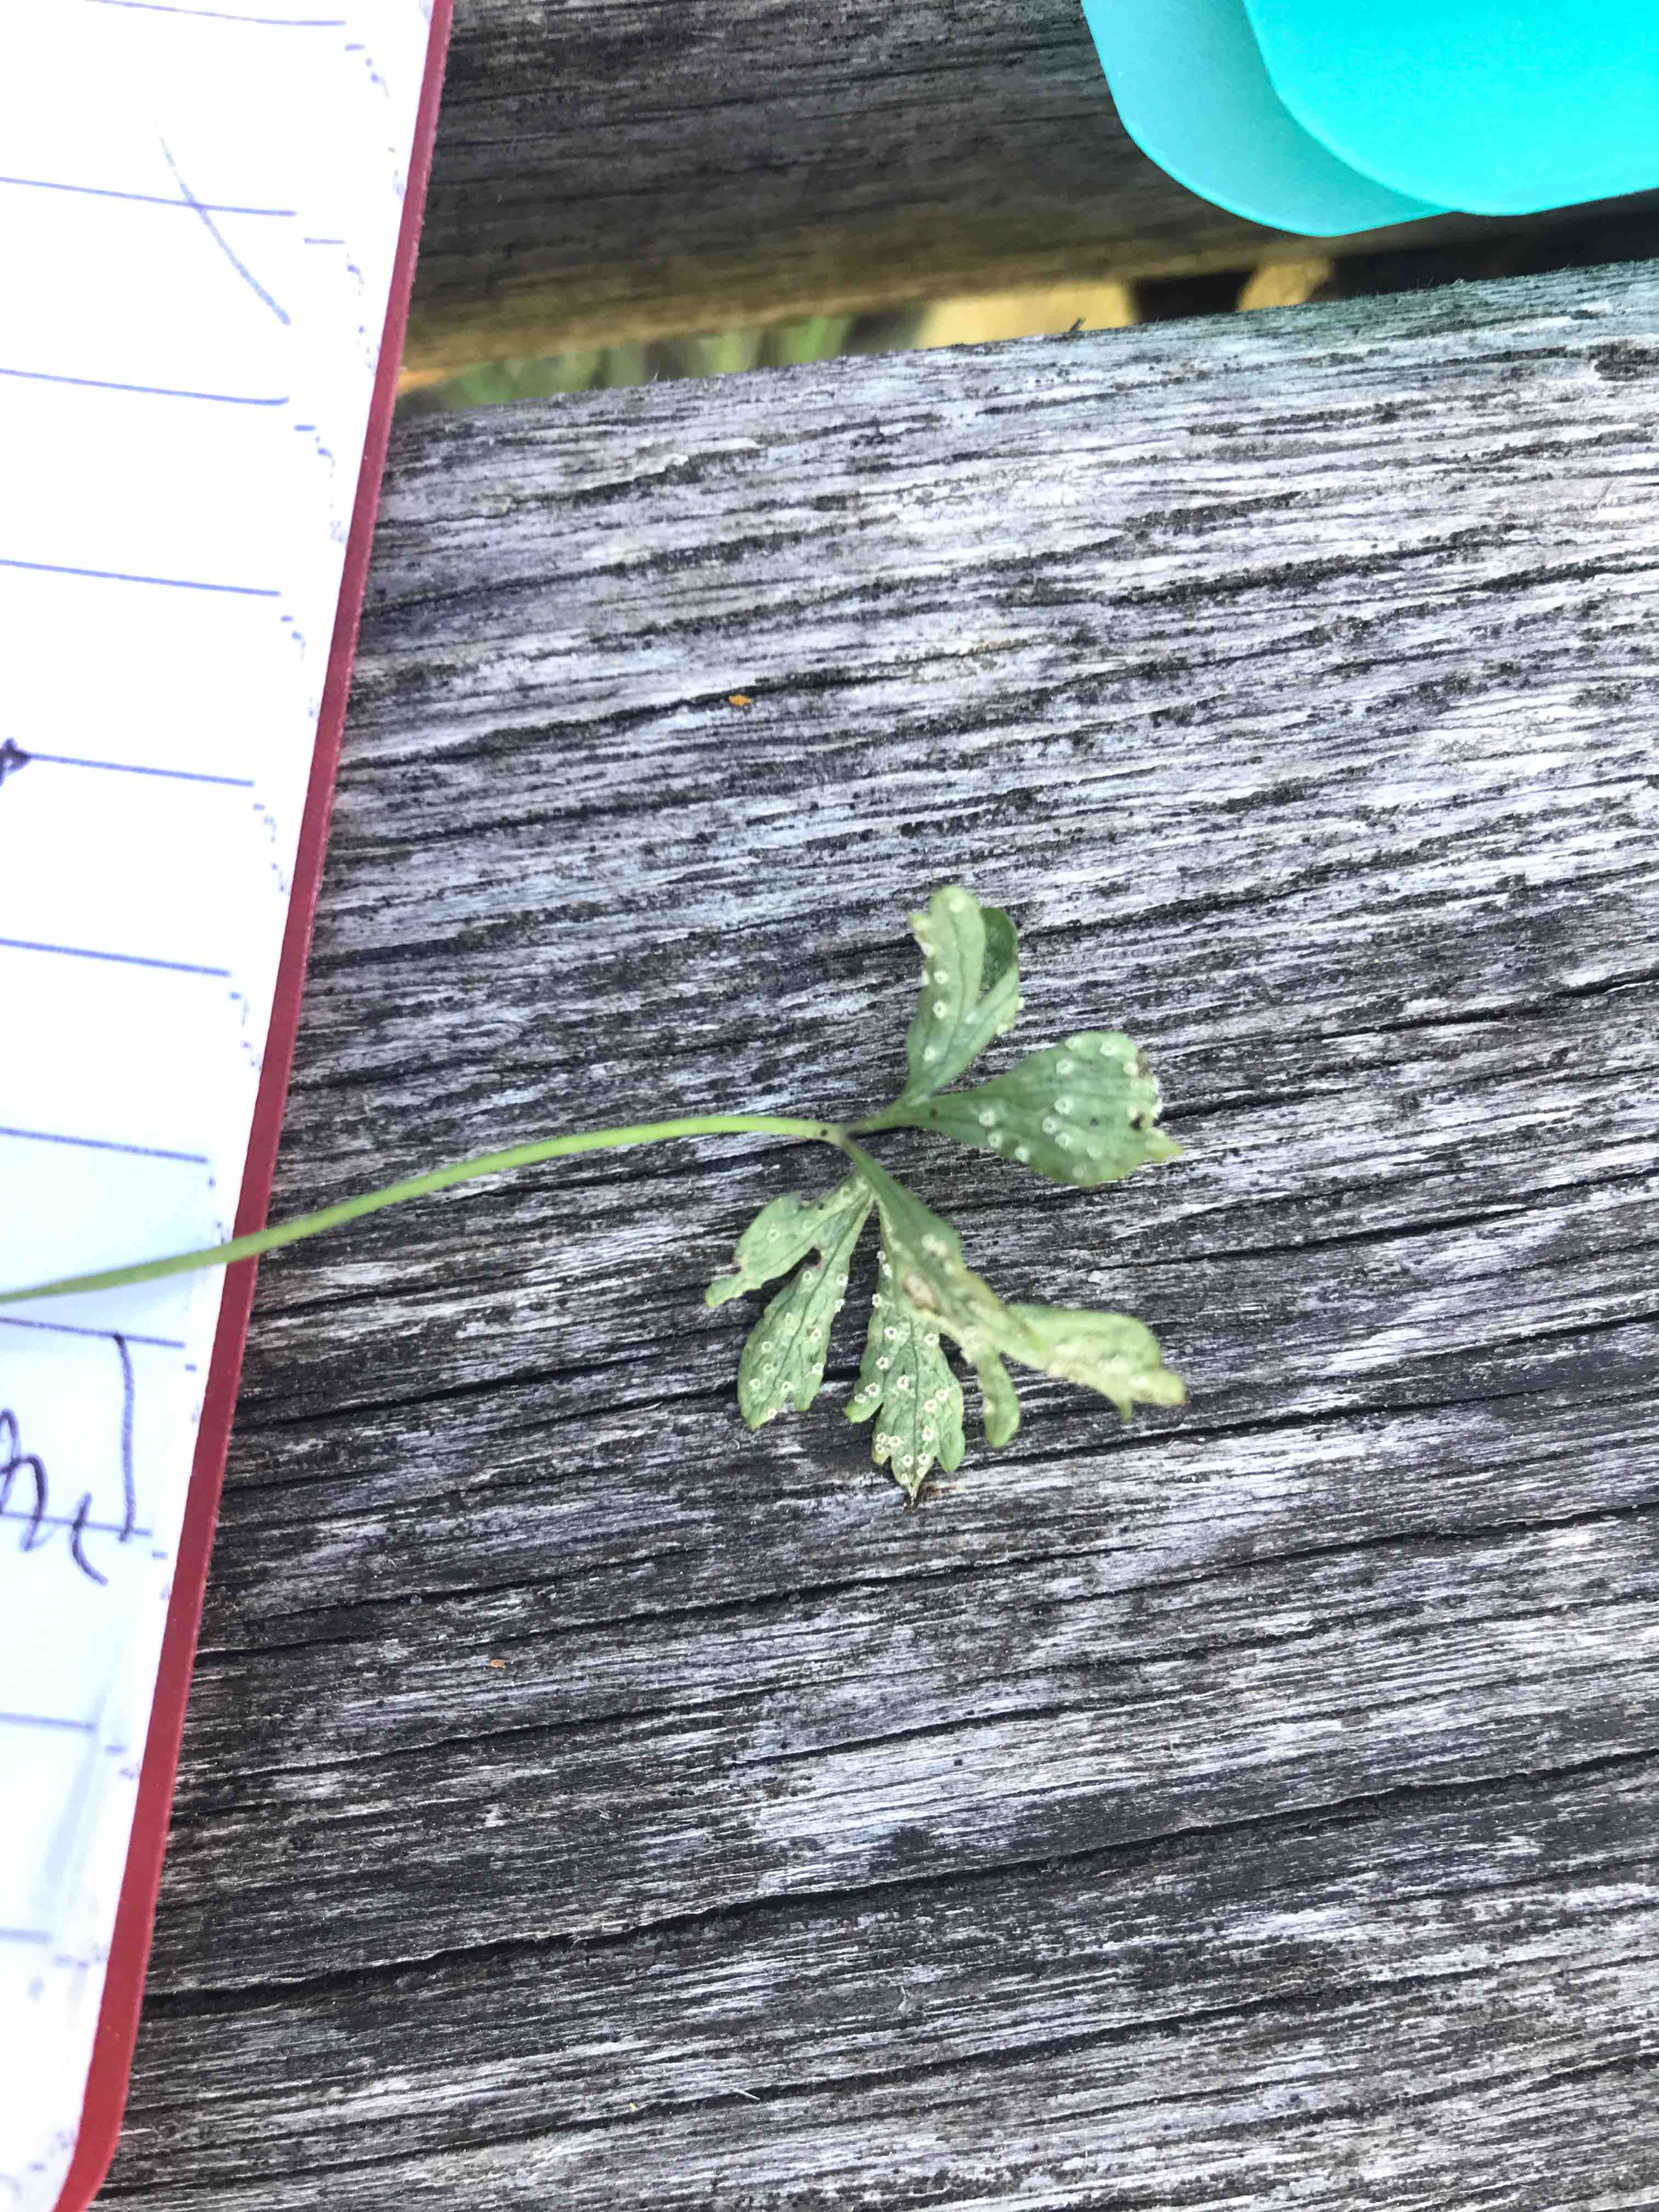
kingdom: Fungi
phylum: Basidiomycota
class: Pucciniomycetes
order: Pucciniales
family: Ochropsoraceae
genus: Ochropsora
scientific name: Ochropsora ariae
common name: anemone-okkerpletrust
